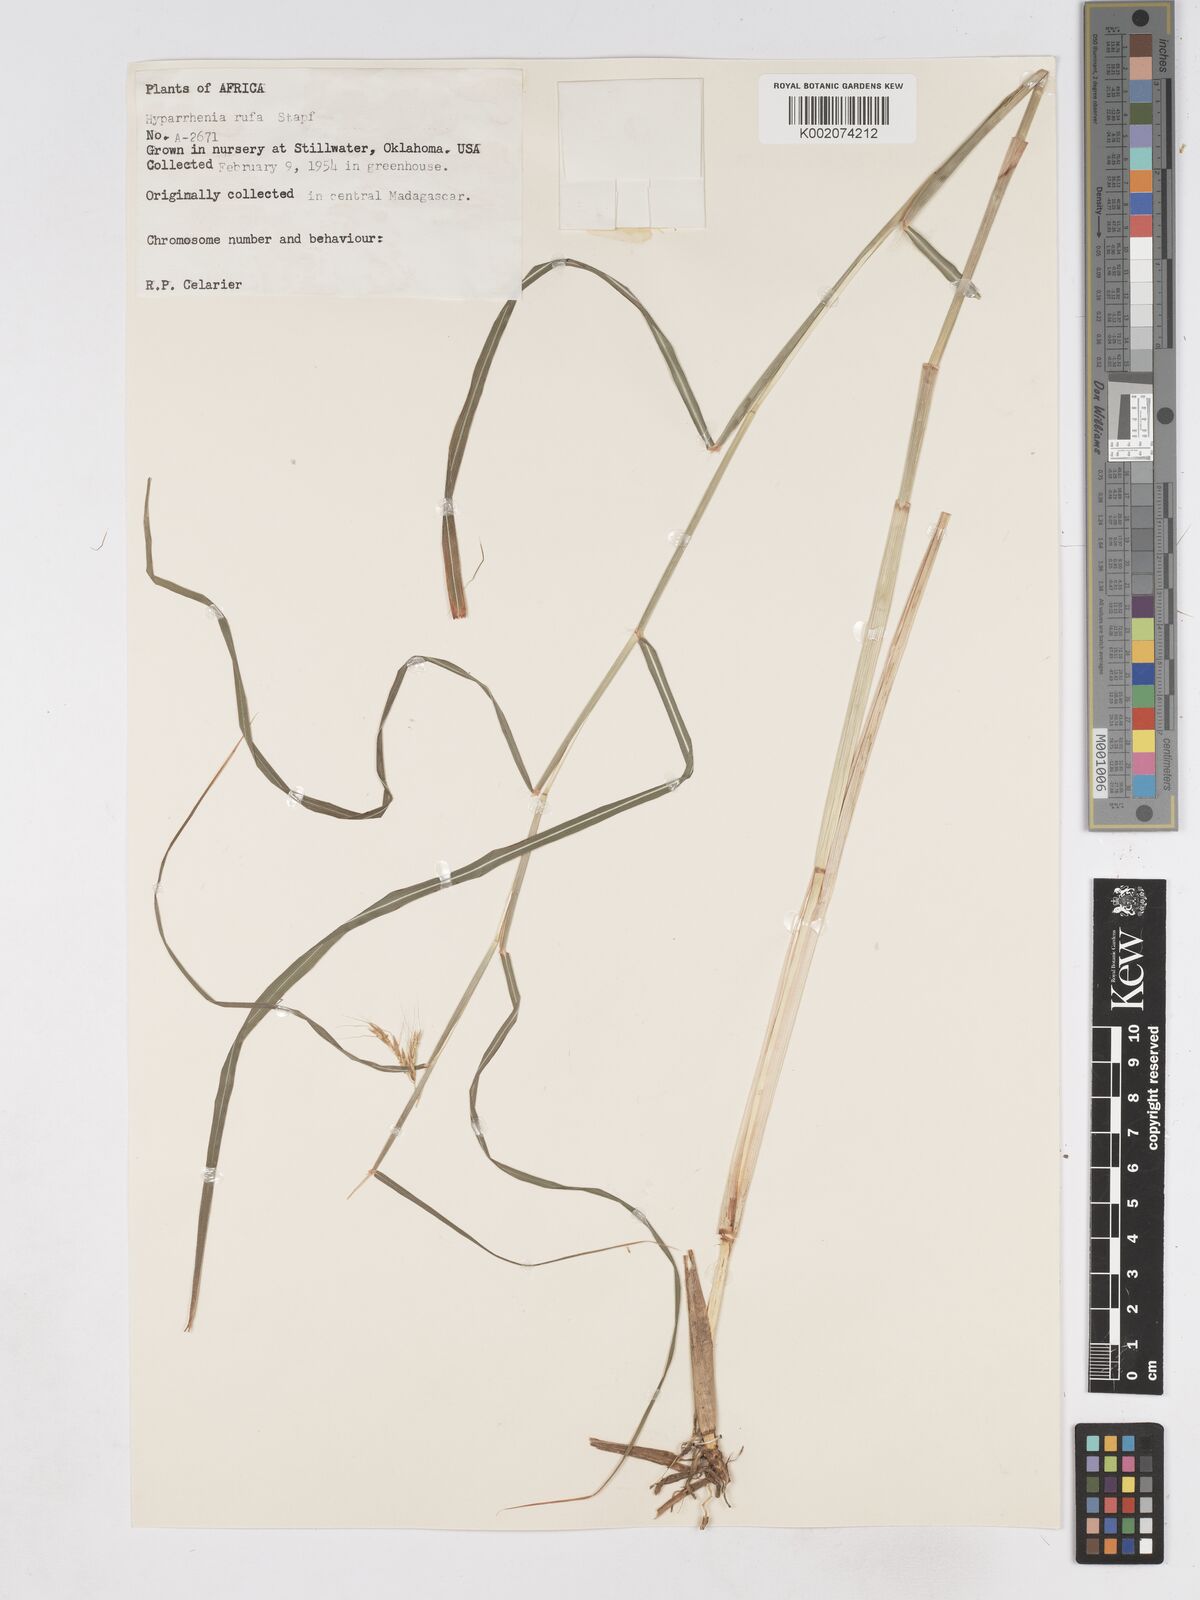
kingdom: Plantae
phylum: Tracheophyta
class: Liliopsida
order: Poales
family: Poaceae
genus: Hyparrhenia
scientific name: Hyparrhenia rufa
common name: Jaraguagrass
